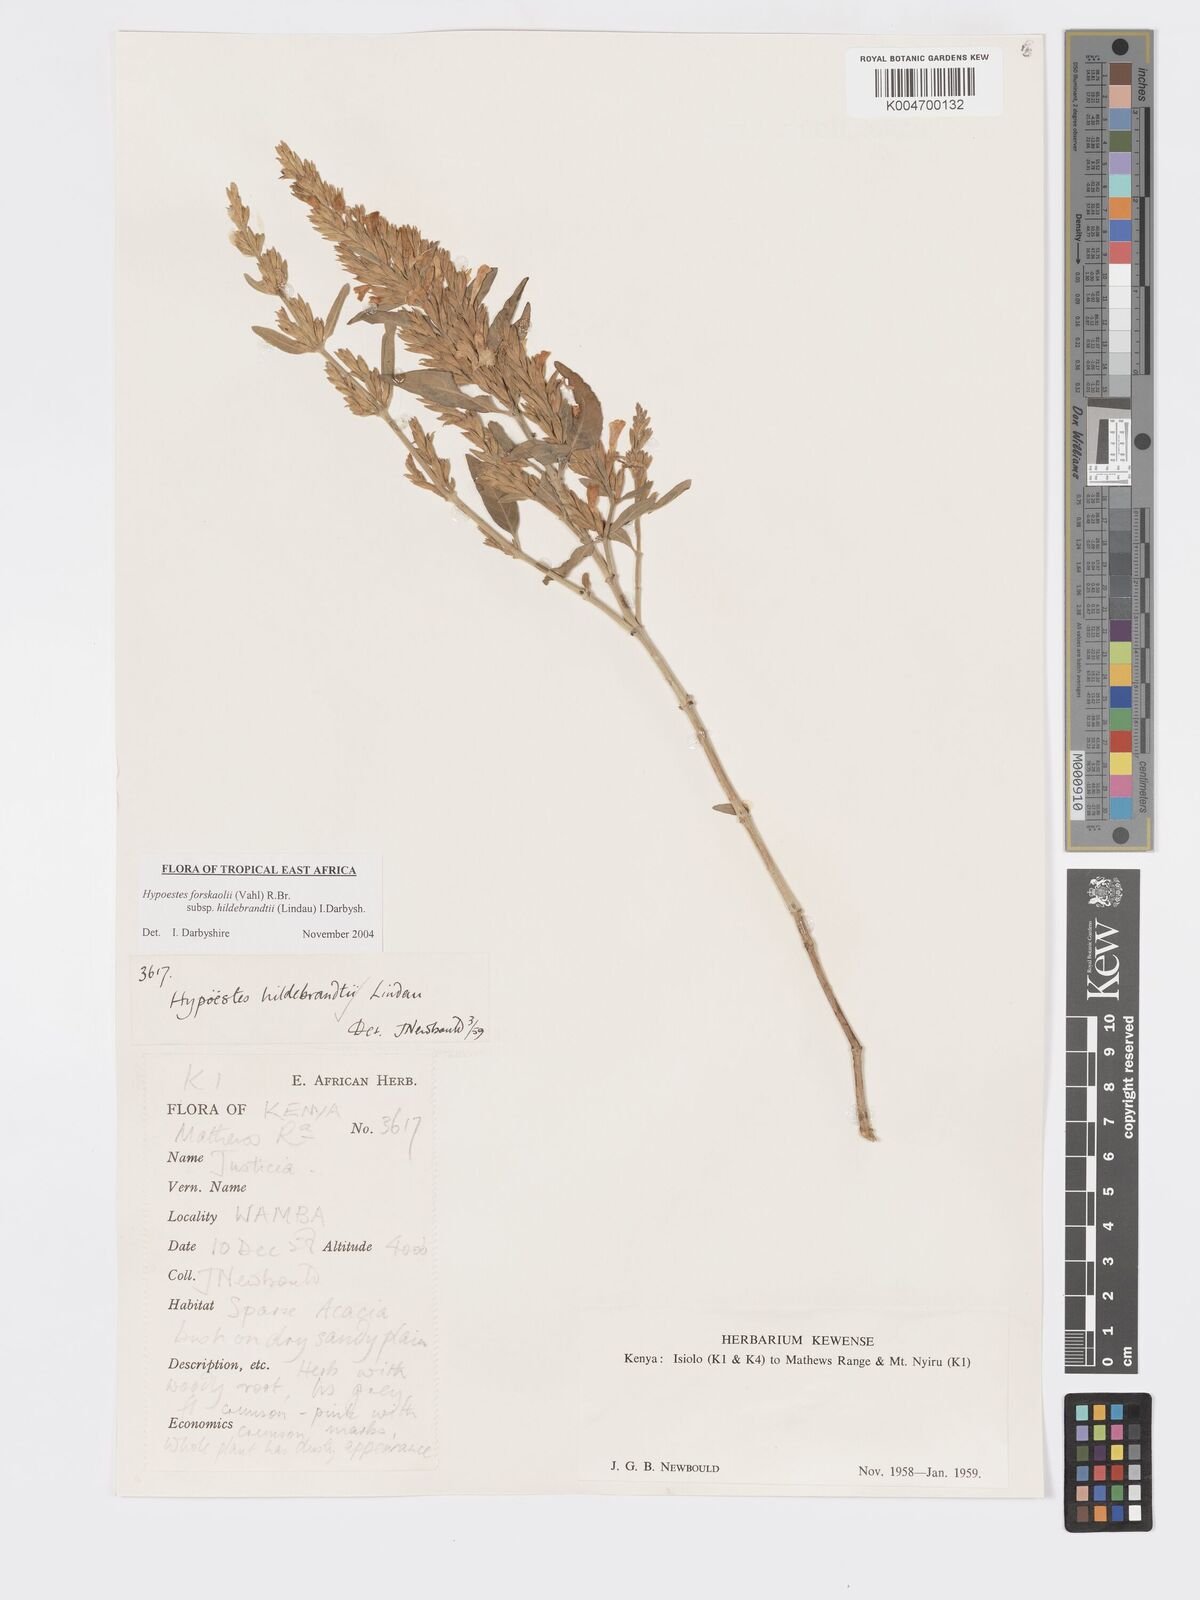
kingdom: Plantae
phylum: Tracheophyta
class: Magnoliopsida
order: Lamiales
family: Acanthaceae
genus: Hypoestes
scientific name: Hypoestes forskaolii
